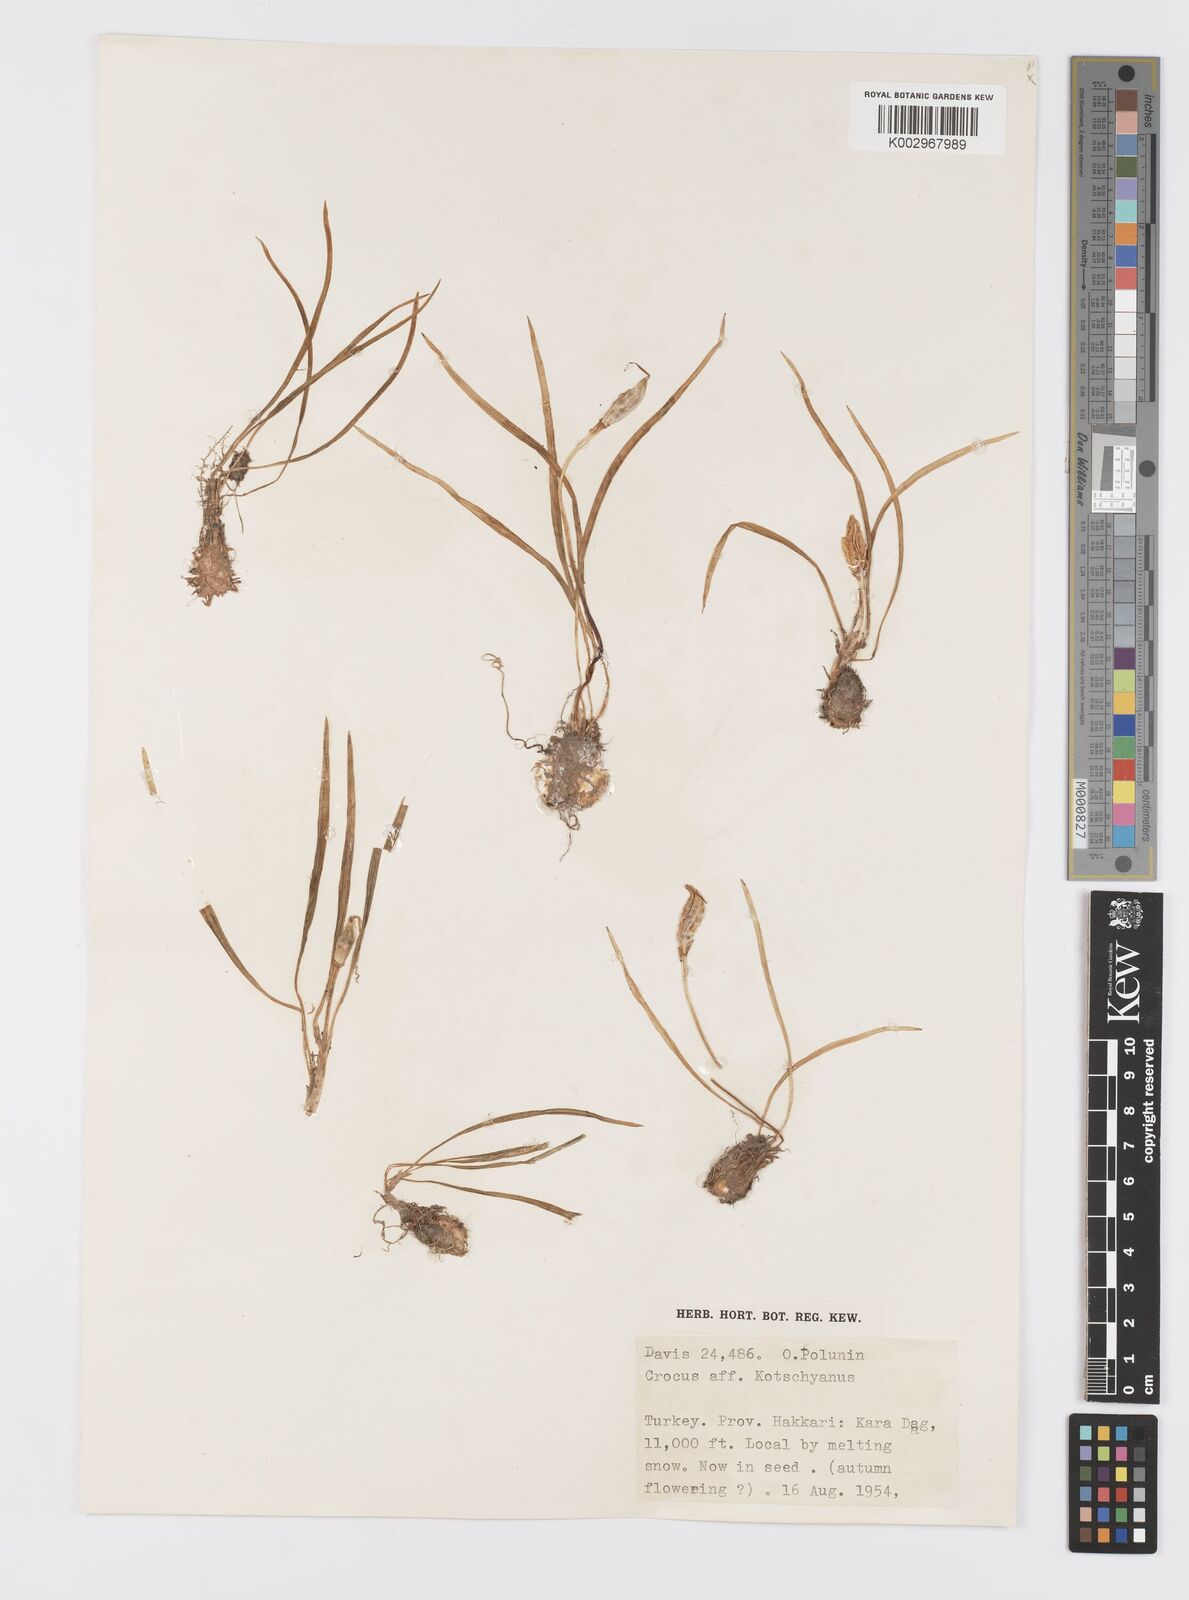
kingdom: Plantae
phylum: Tracheophyta
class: Liliopsida
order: Asparagales
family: Iridaceae
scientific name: Iridaceae
